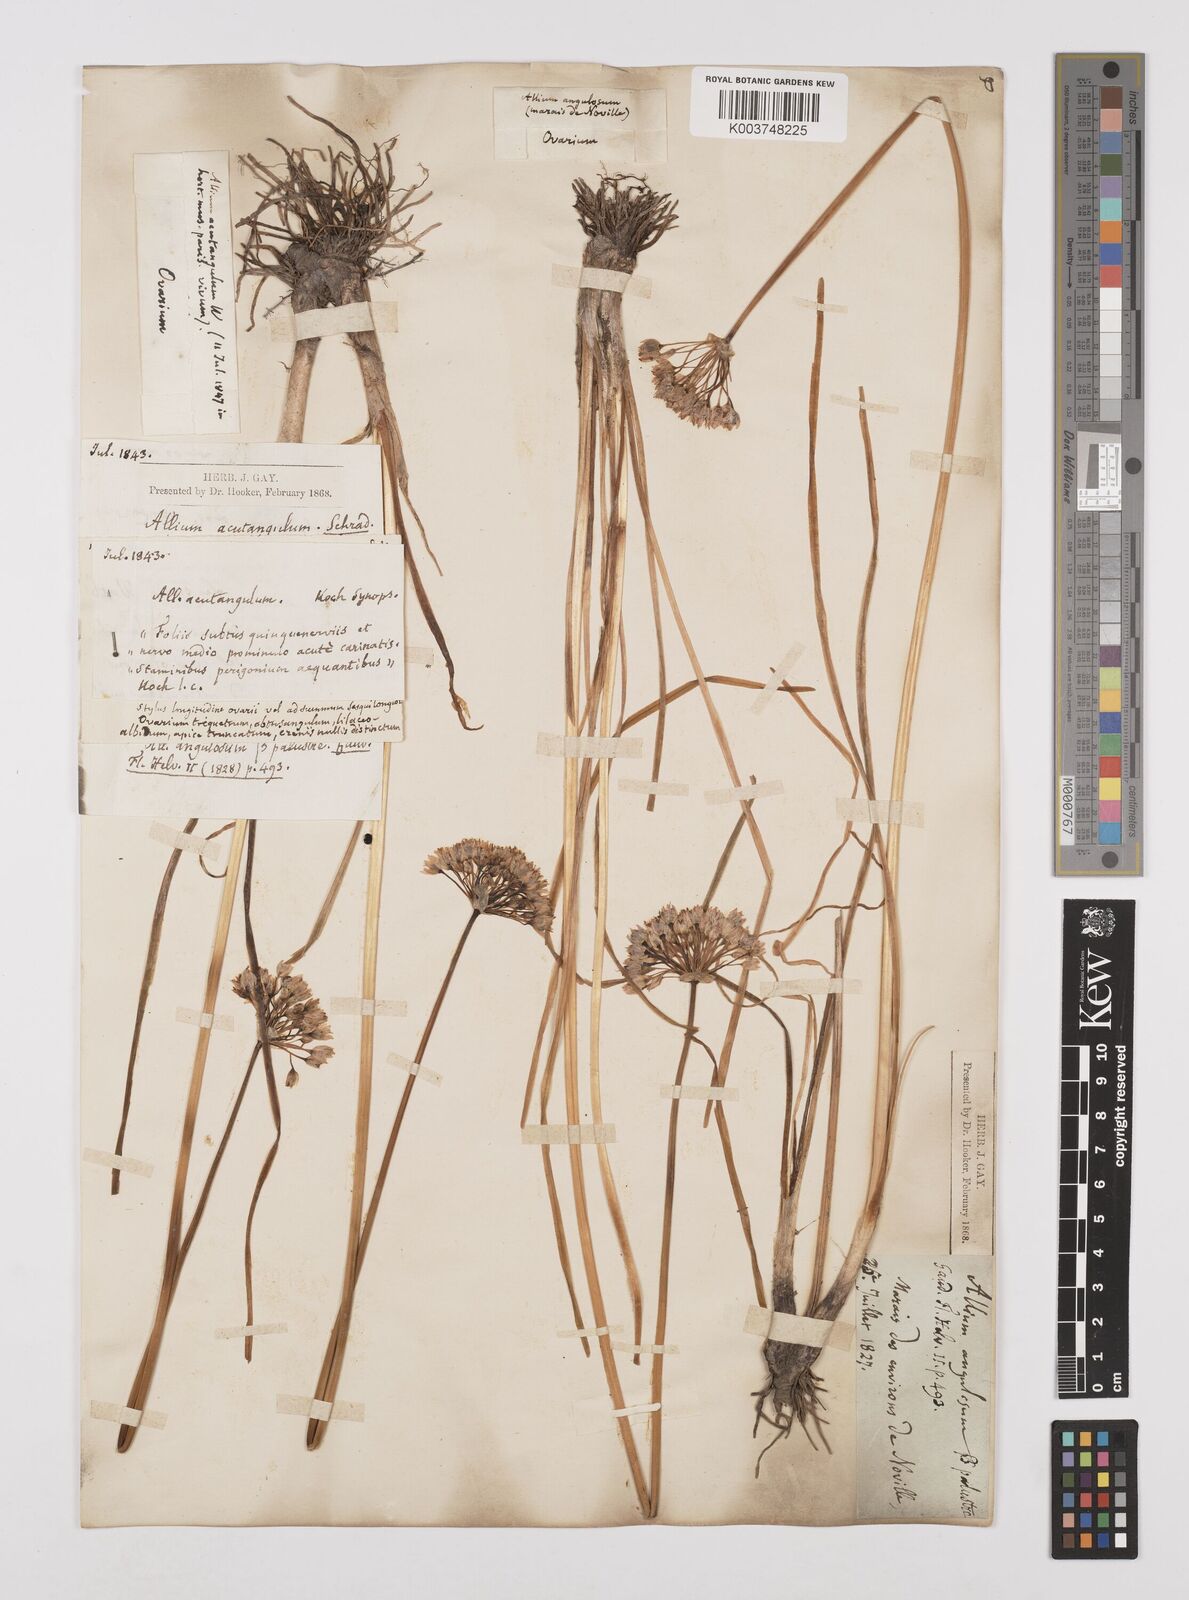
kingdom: Plantae
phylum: Tracheophyta
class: Liliopsida
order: Asparagales
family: Amaryllidaceae
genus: Allium
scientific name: Allium angulosum
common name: Mouse garlic
